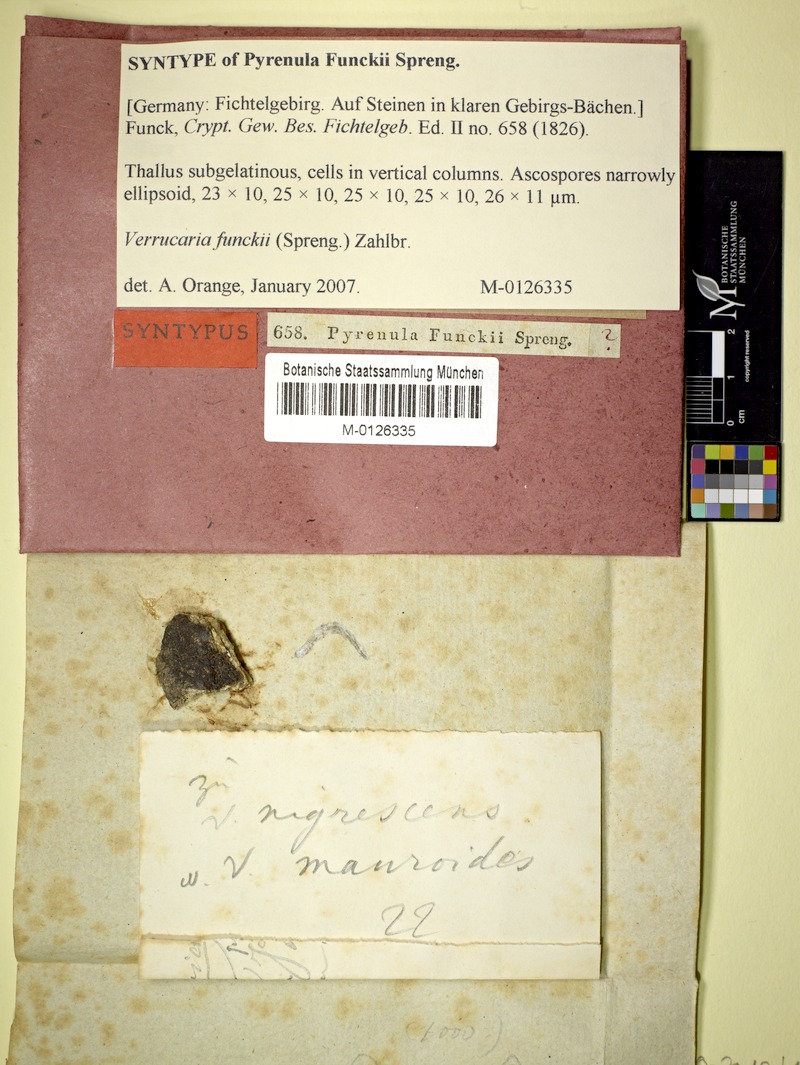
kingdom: Fungi
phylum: Ascomycota
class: Eurotiomycetes
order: Verrucariales
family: Verrucariaceae
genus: Verrucaria
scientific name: Verrucaria funckii
